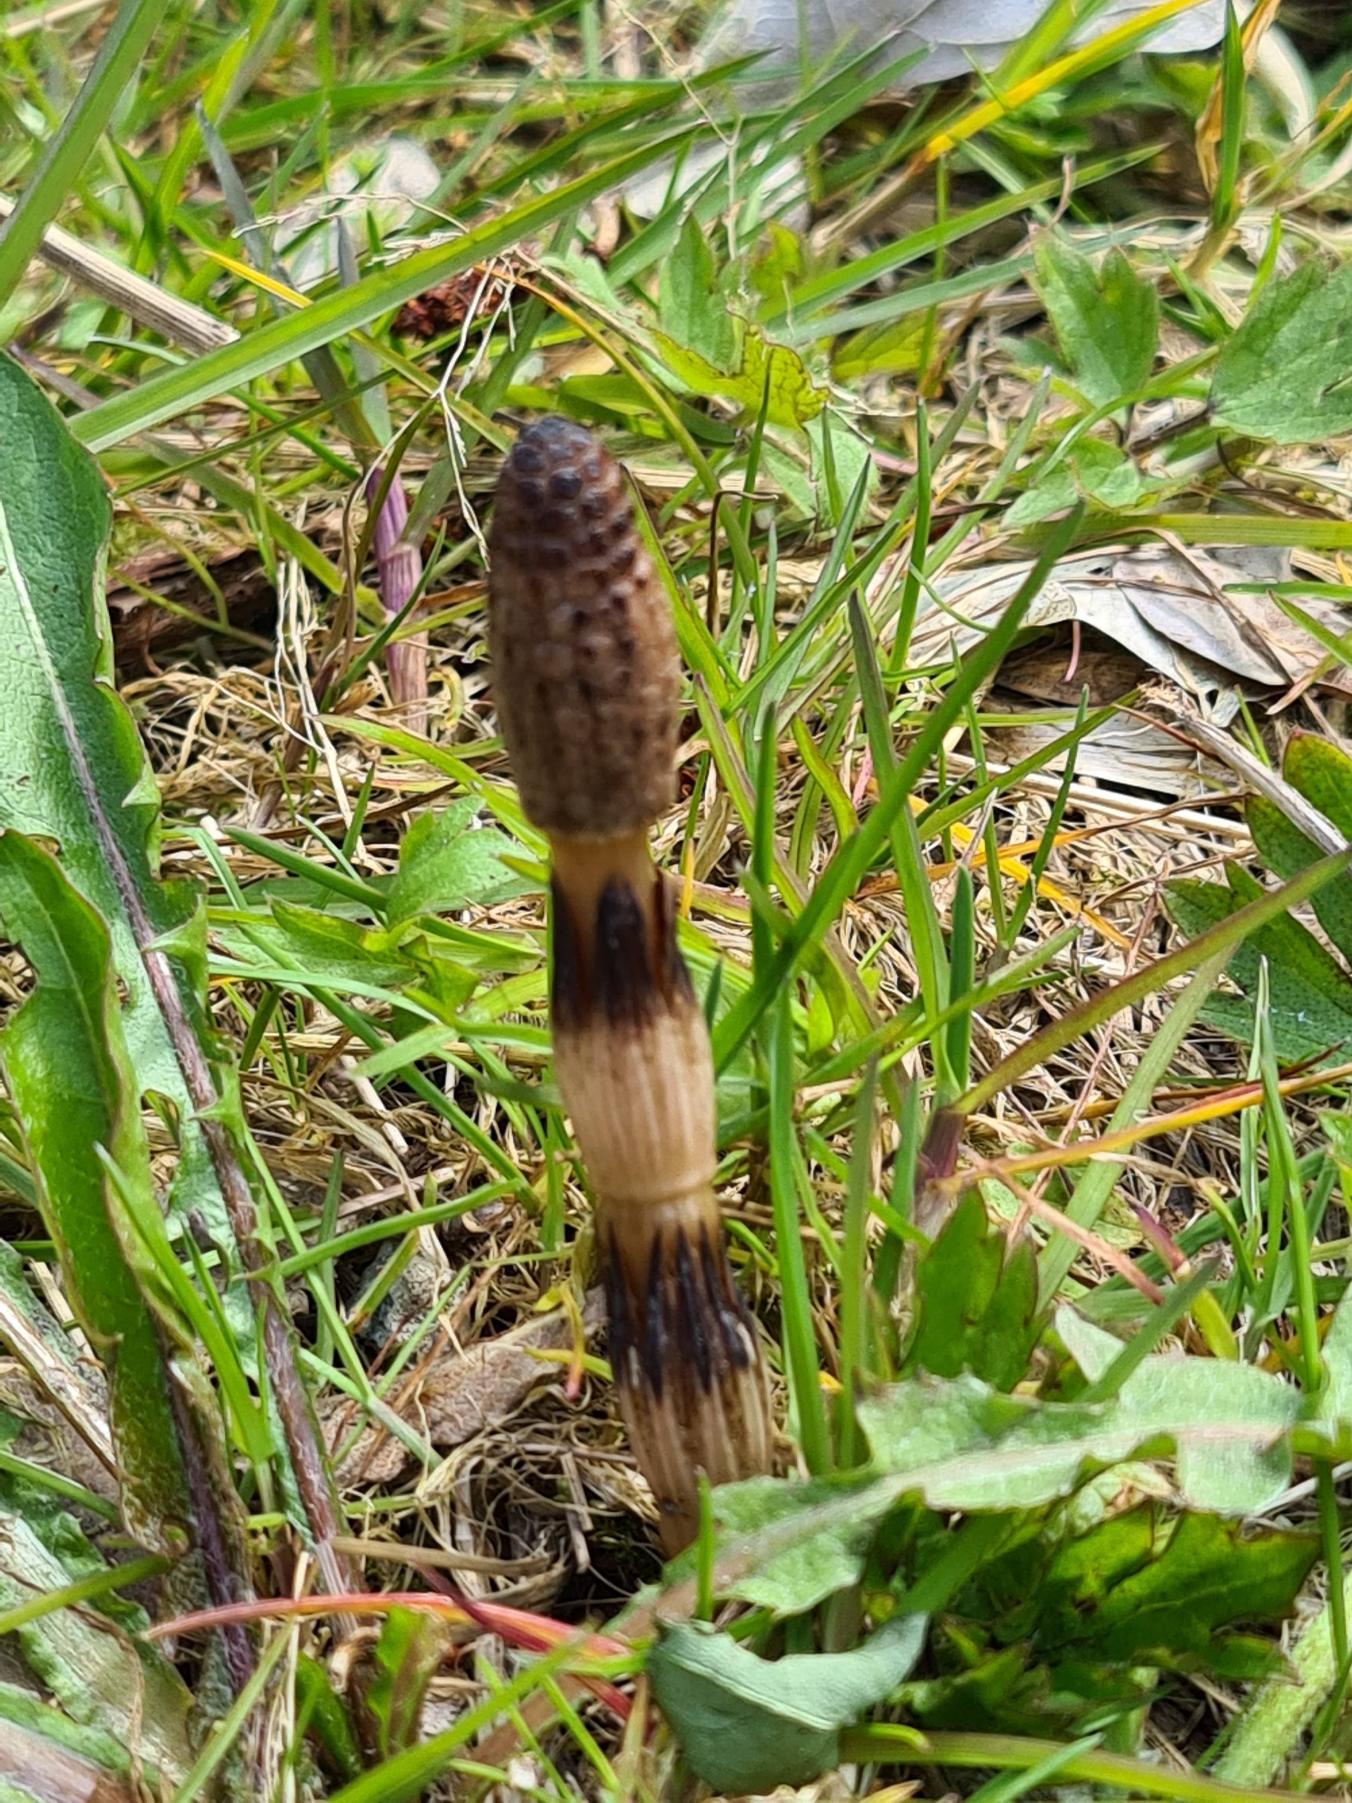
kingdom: Plantae
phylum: Tracheophyta
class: Polypodiopsida
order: Equisetales
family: Equisetaceae
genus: Equisetum
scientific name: Equisetum arvense
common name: Ager-padderok
